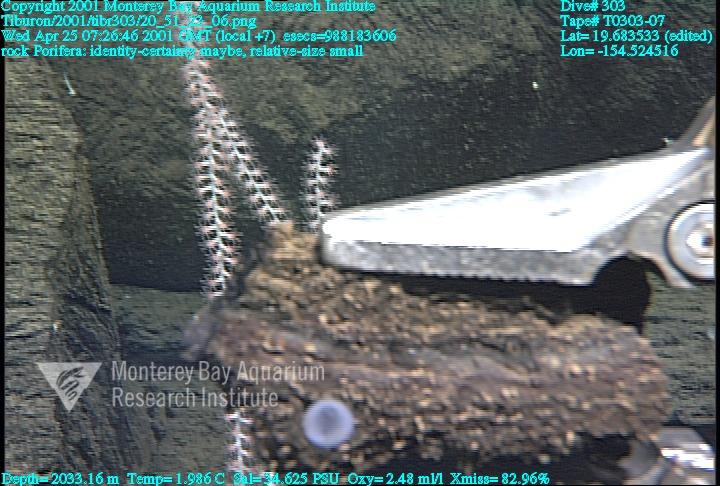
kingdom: Animalia
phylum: Porifera
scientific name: Porifera
